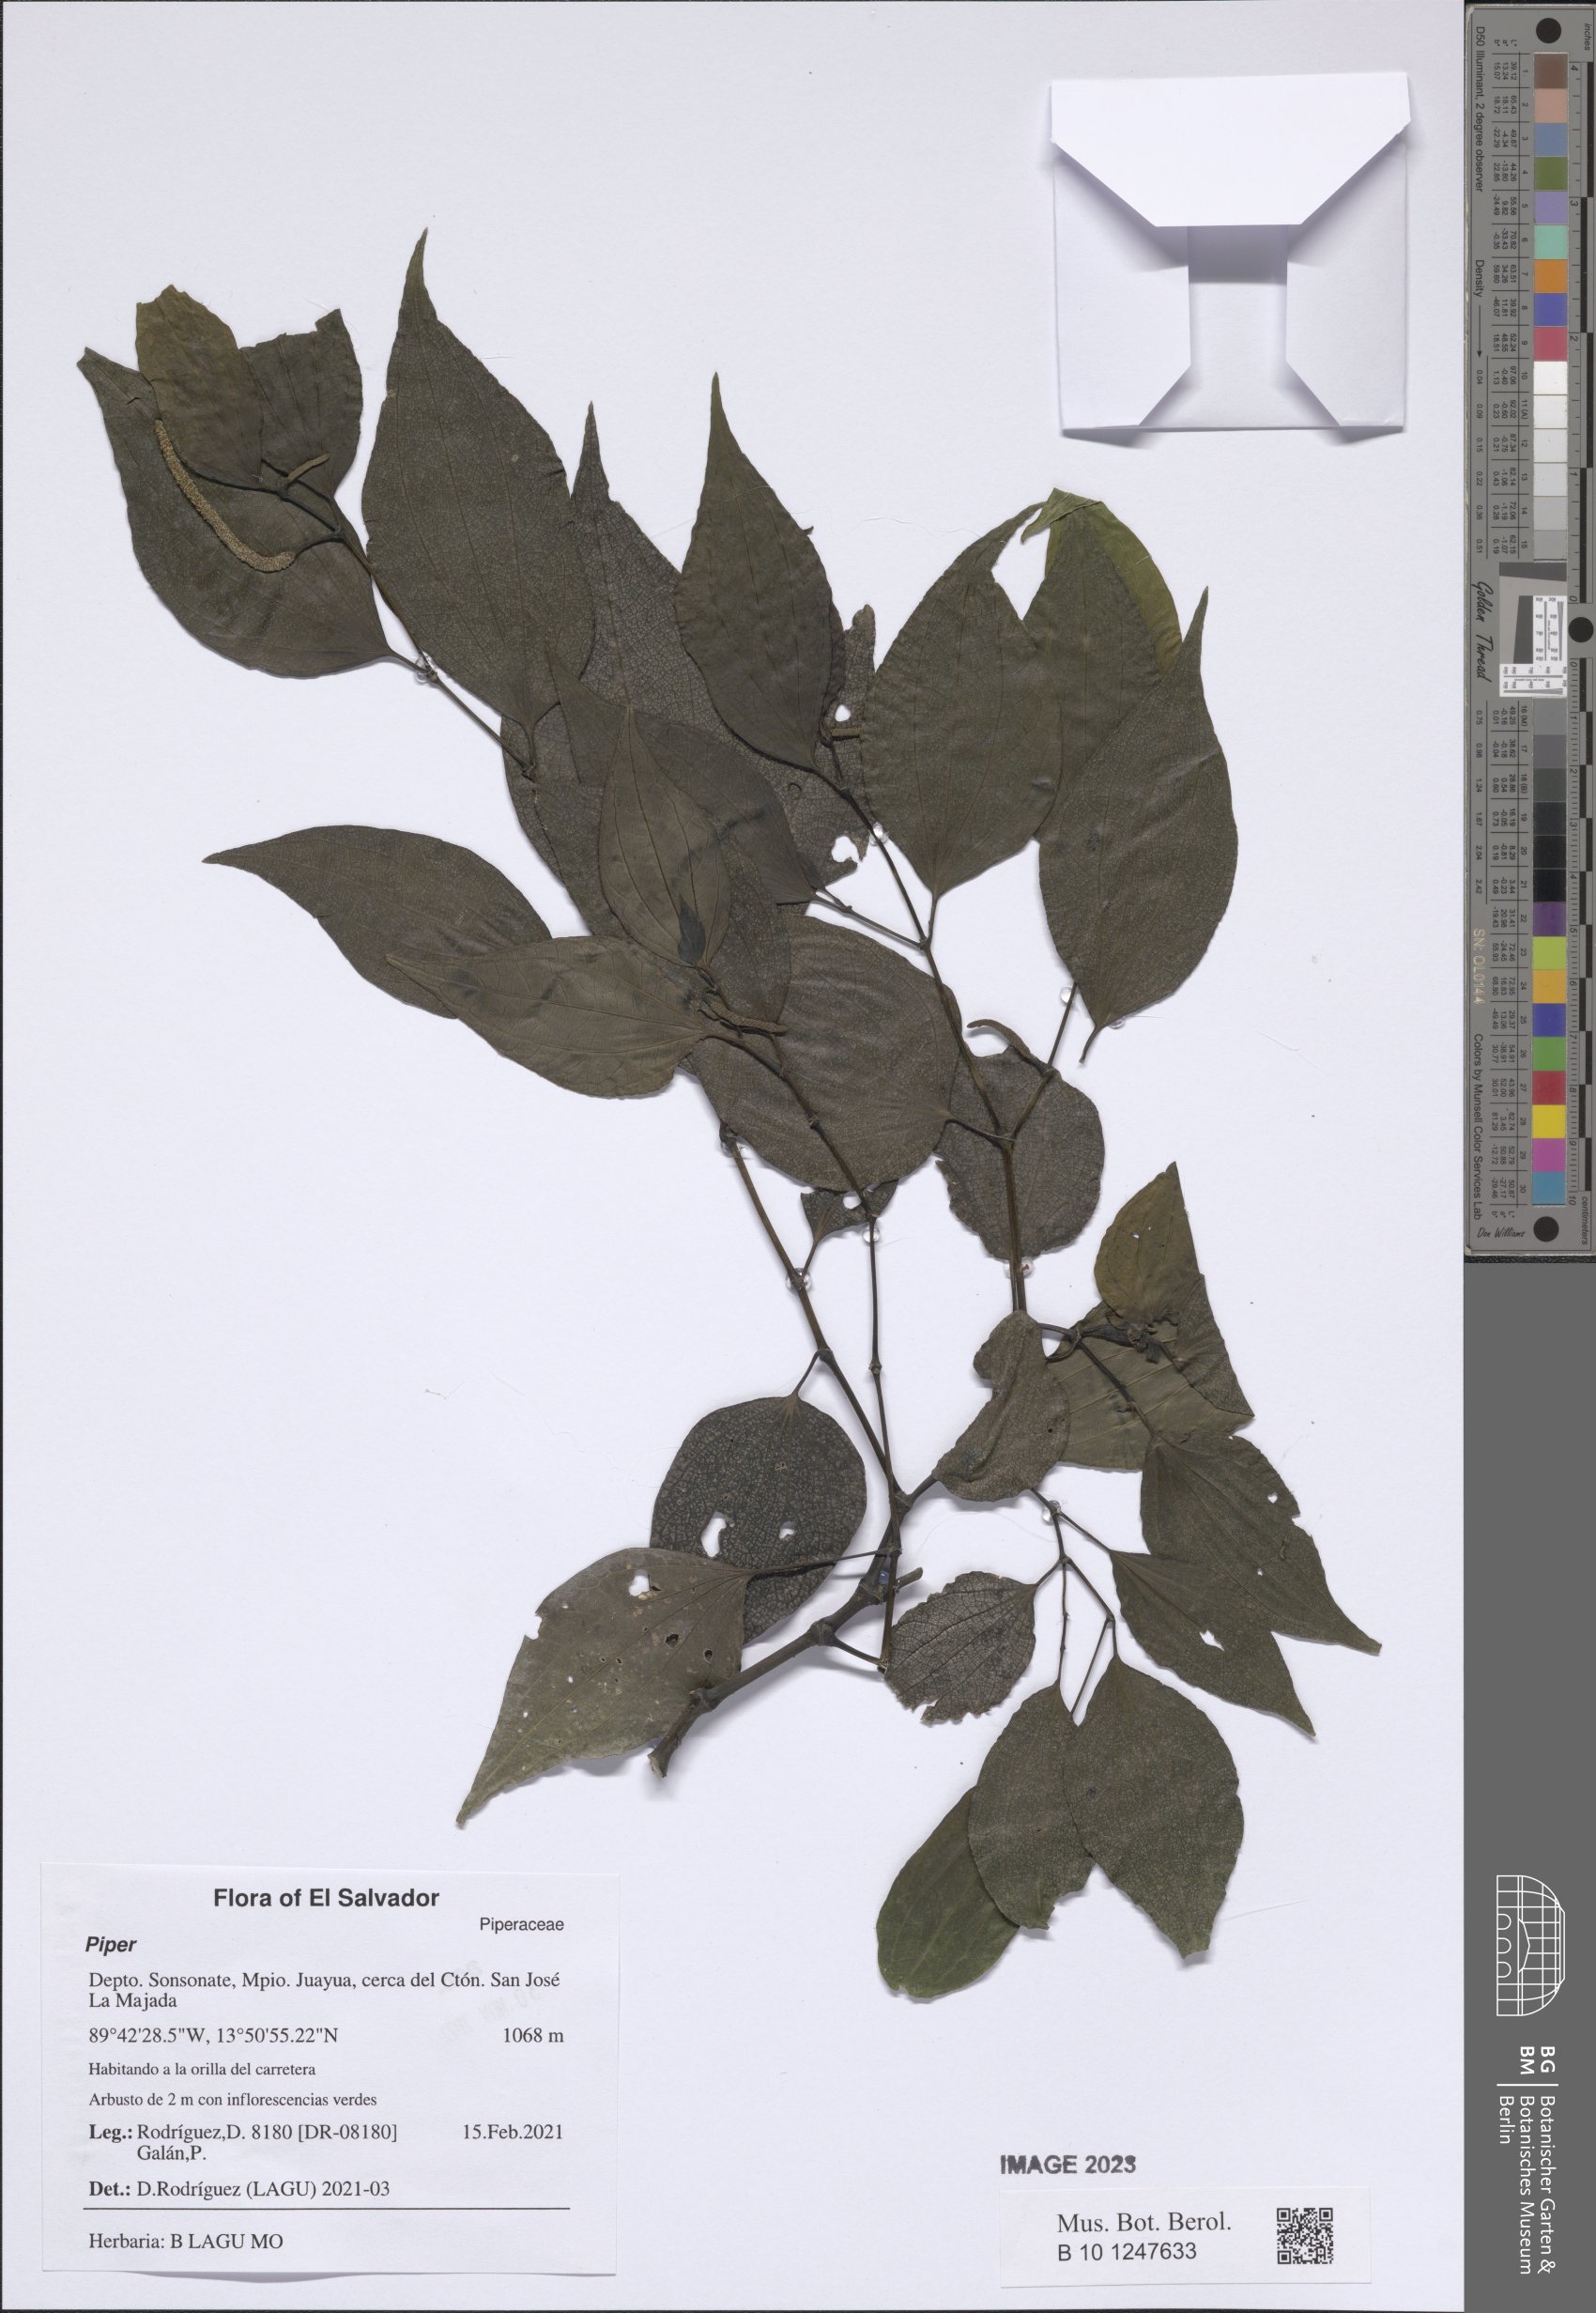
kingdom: Plantae
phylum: Tracheophyta
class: Magnoliopsida
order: Piperales
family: Piperaceae
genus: Piper
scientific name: Piper
